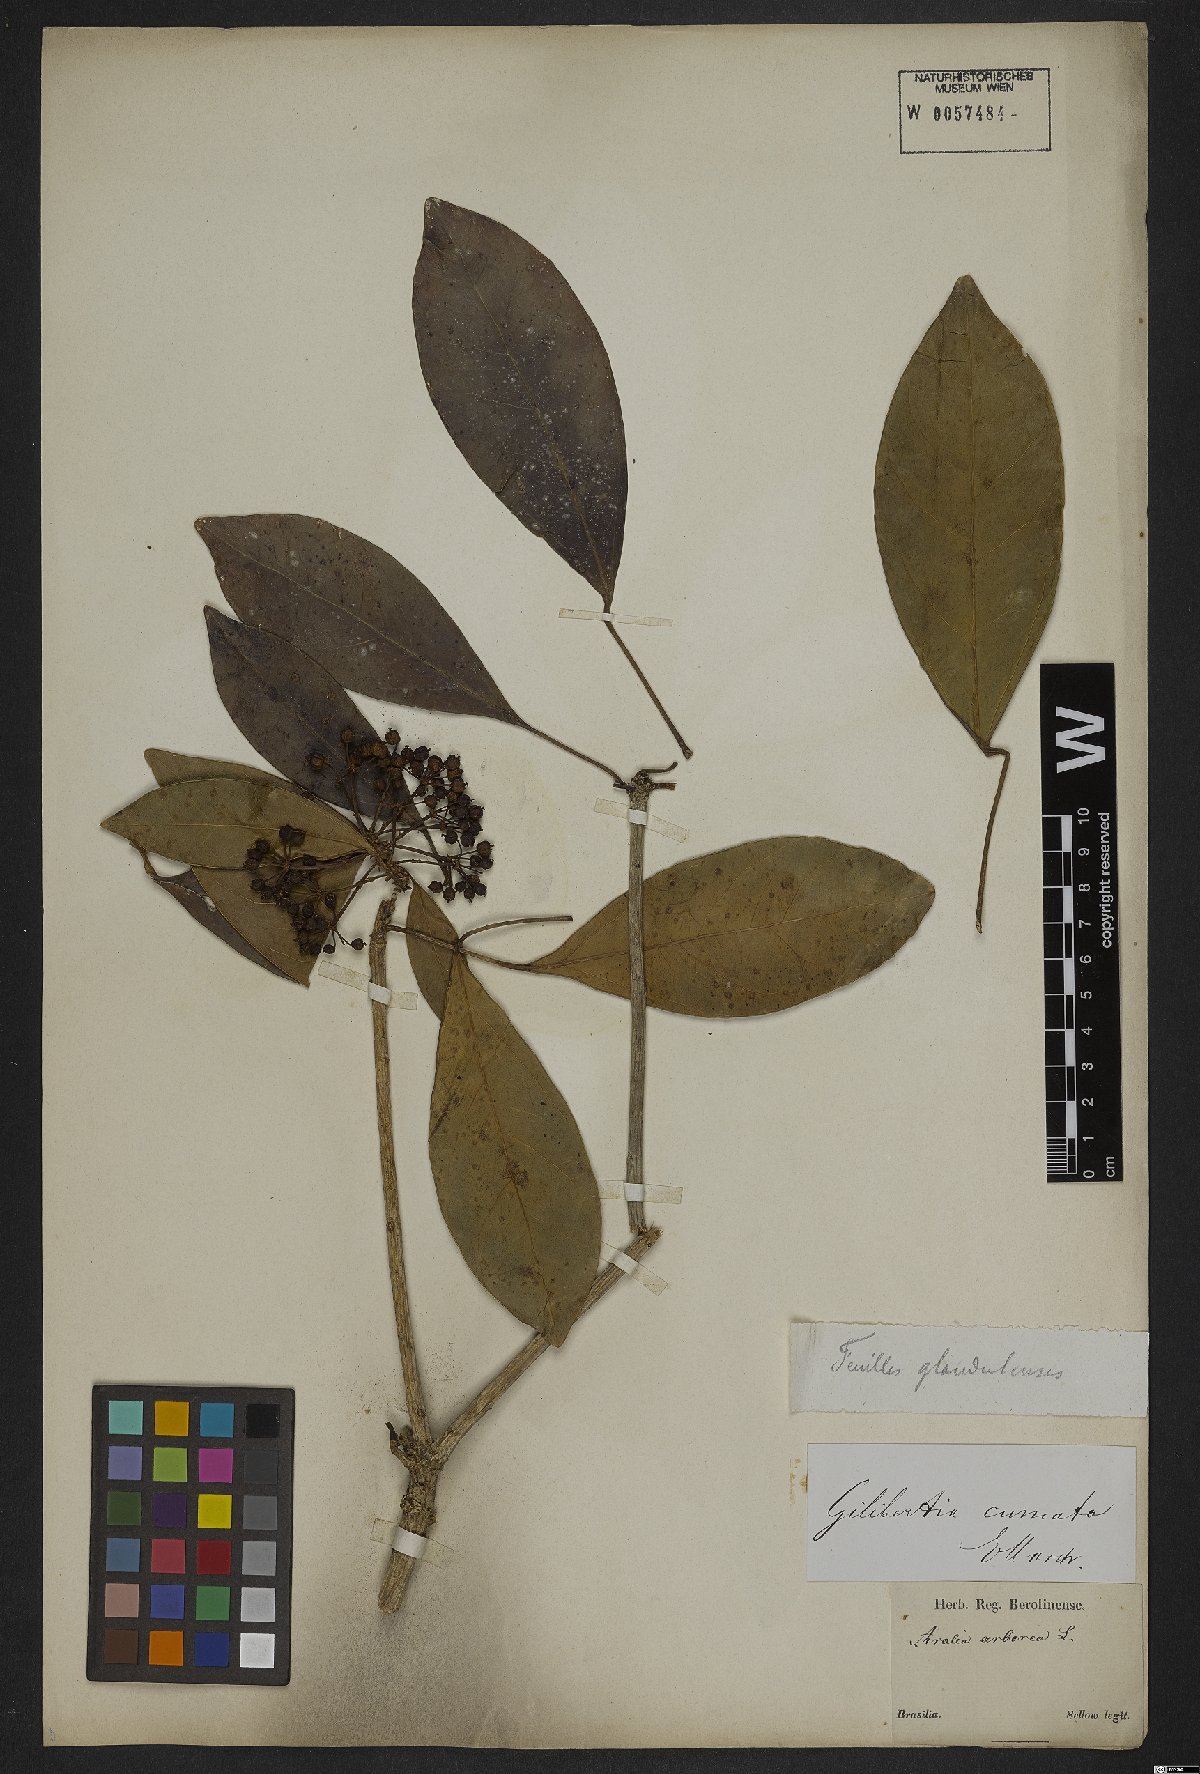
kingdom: Plantae
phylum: Tracheophyta
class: Magnoliopsida
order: Apiales
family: Araliaceae
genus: Dendropanax
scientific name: Dendropanax cuneatus
